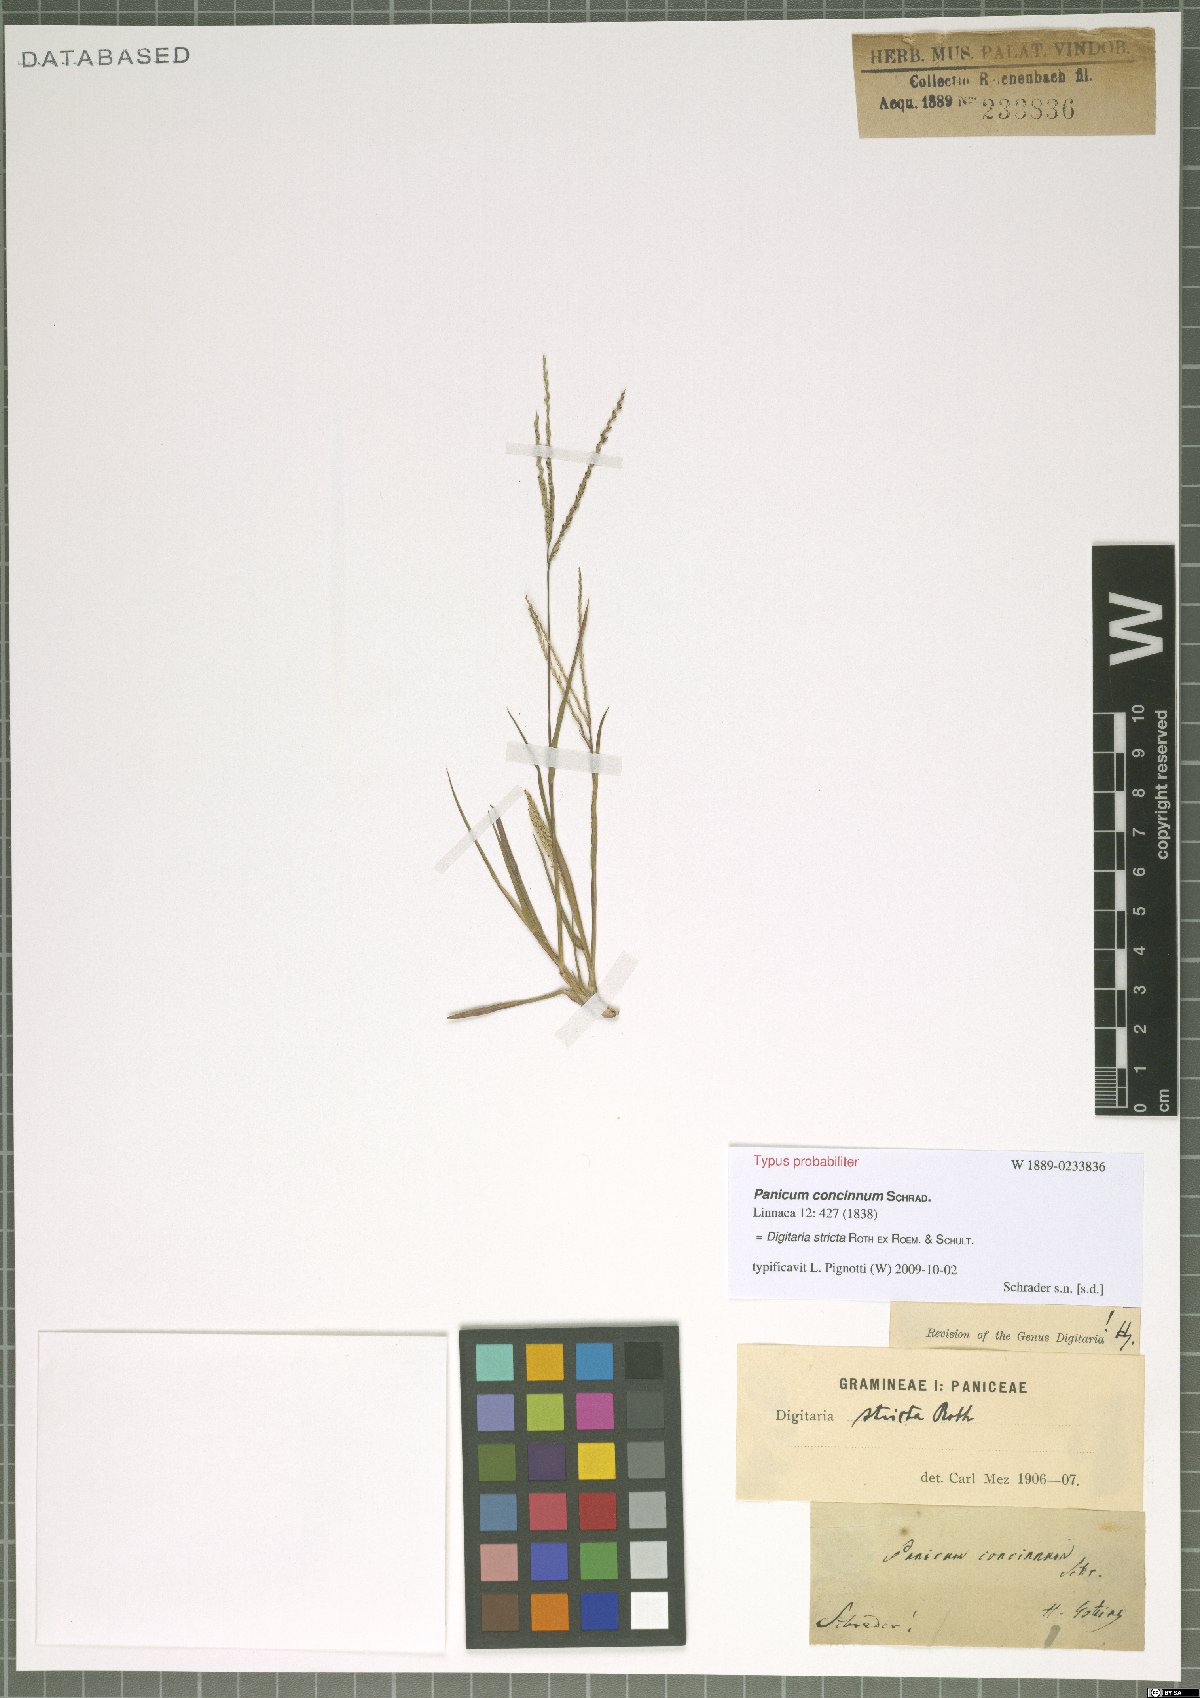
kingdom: Plantae
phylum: Tracheophyta
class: Liliopsida
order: Poales
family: Poaceae
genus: Digitaria
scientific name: Digitaria stricta
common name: Crabgrass
